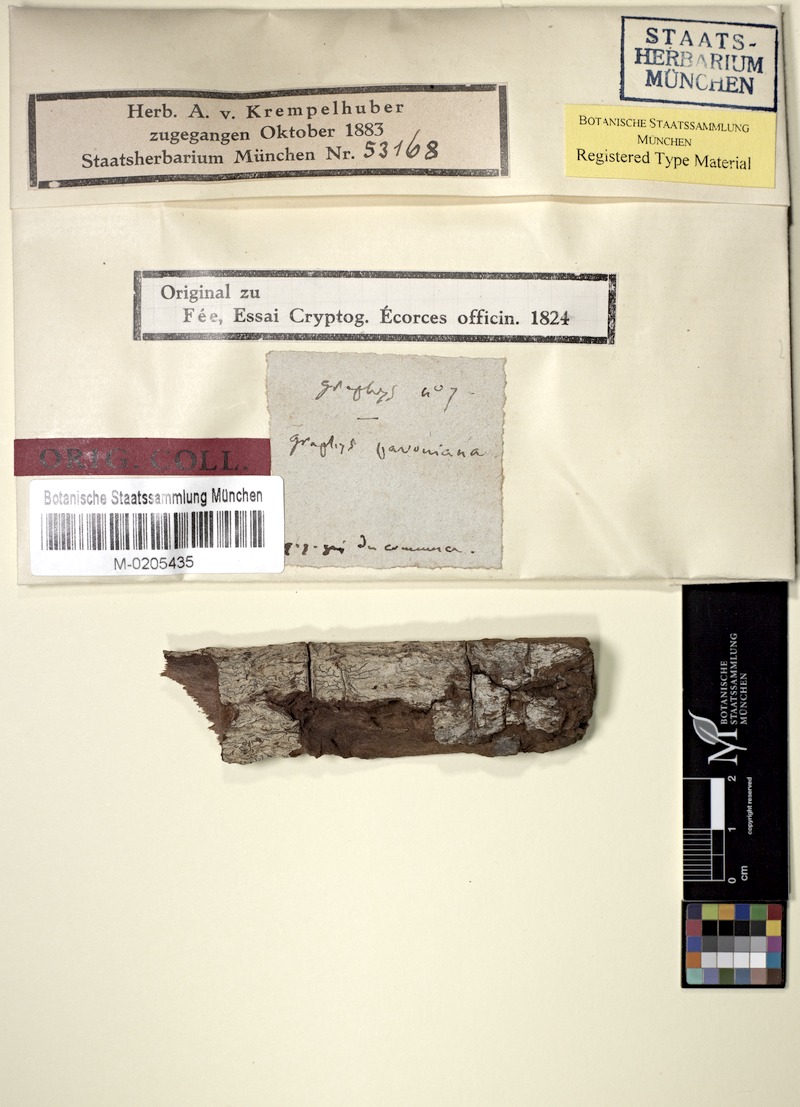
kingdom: Fungi
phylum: Ascomycota
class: Lecanoromycetes
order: Ostropales
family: Graphidaceae
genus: Allographa
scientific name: Allographa pavoniana
